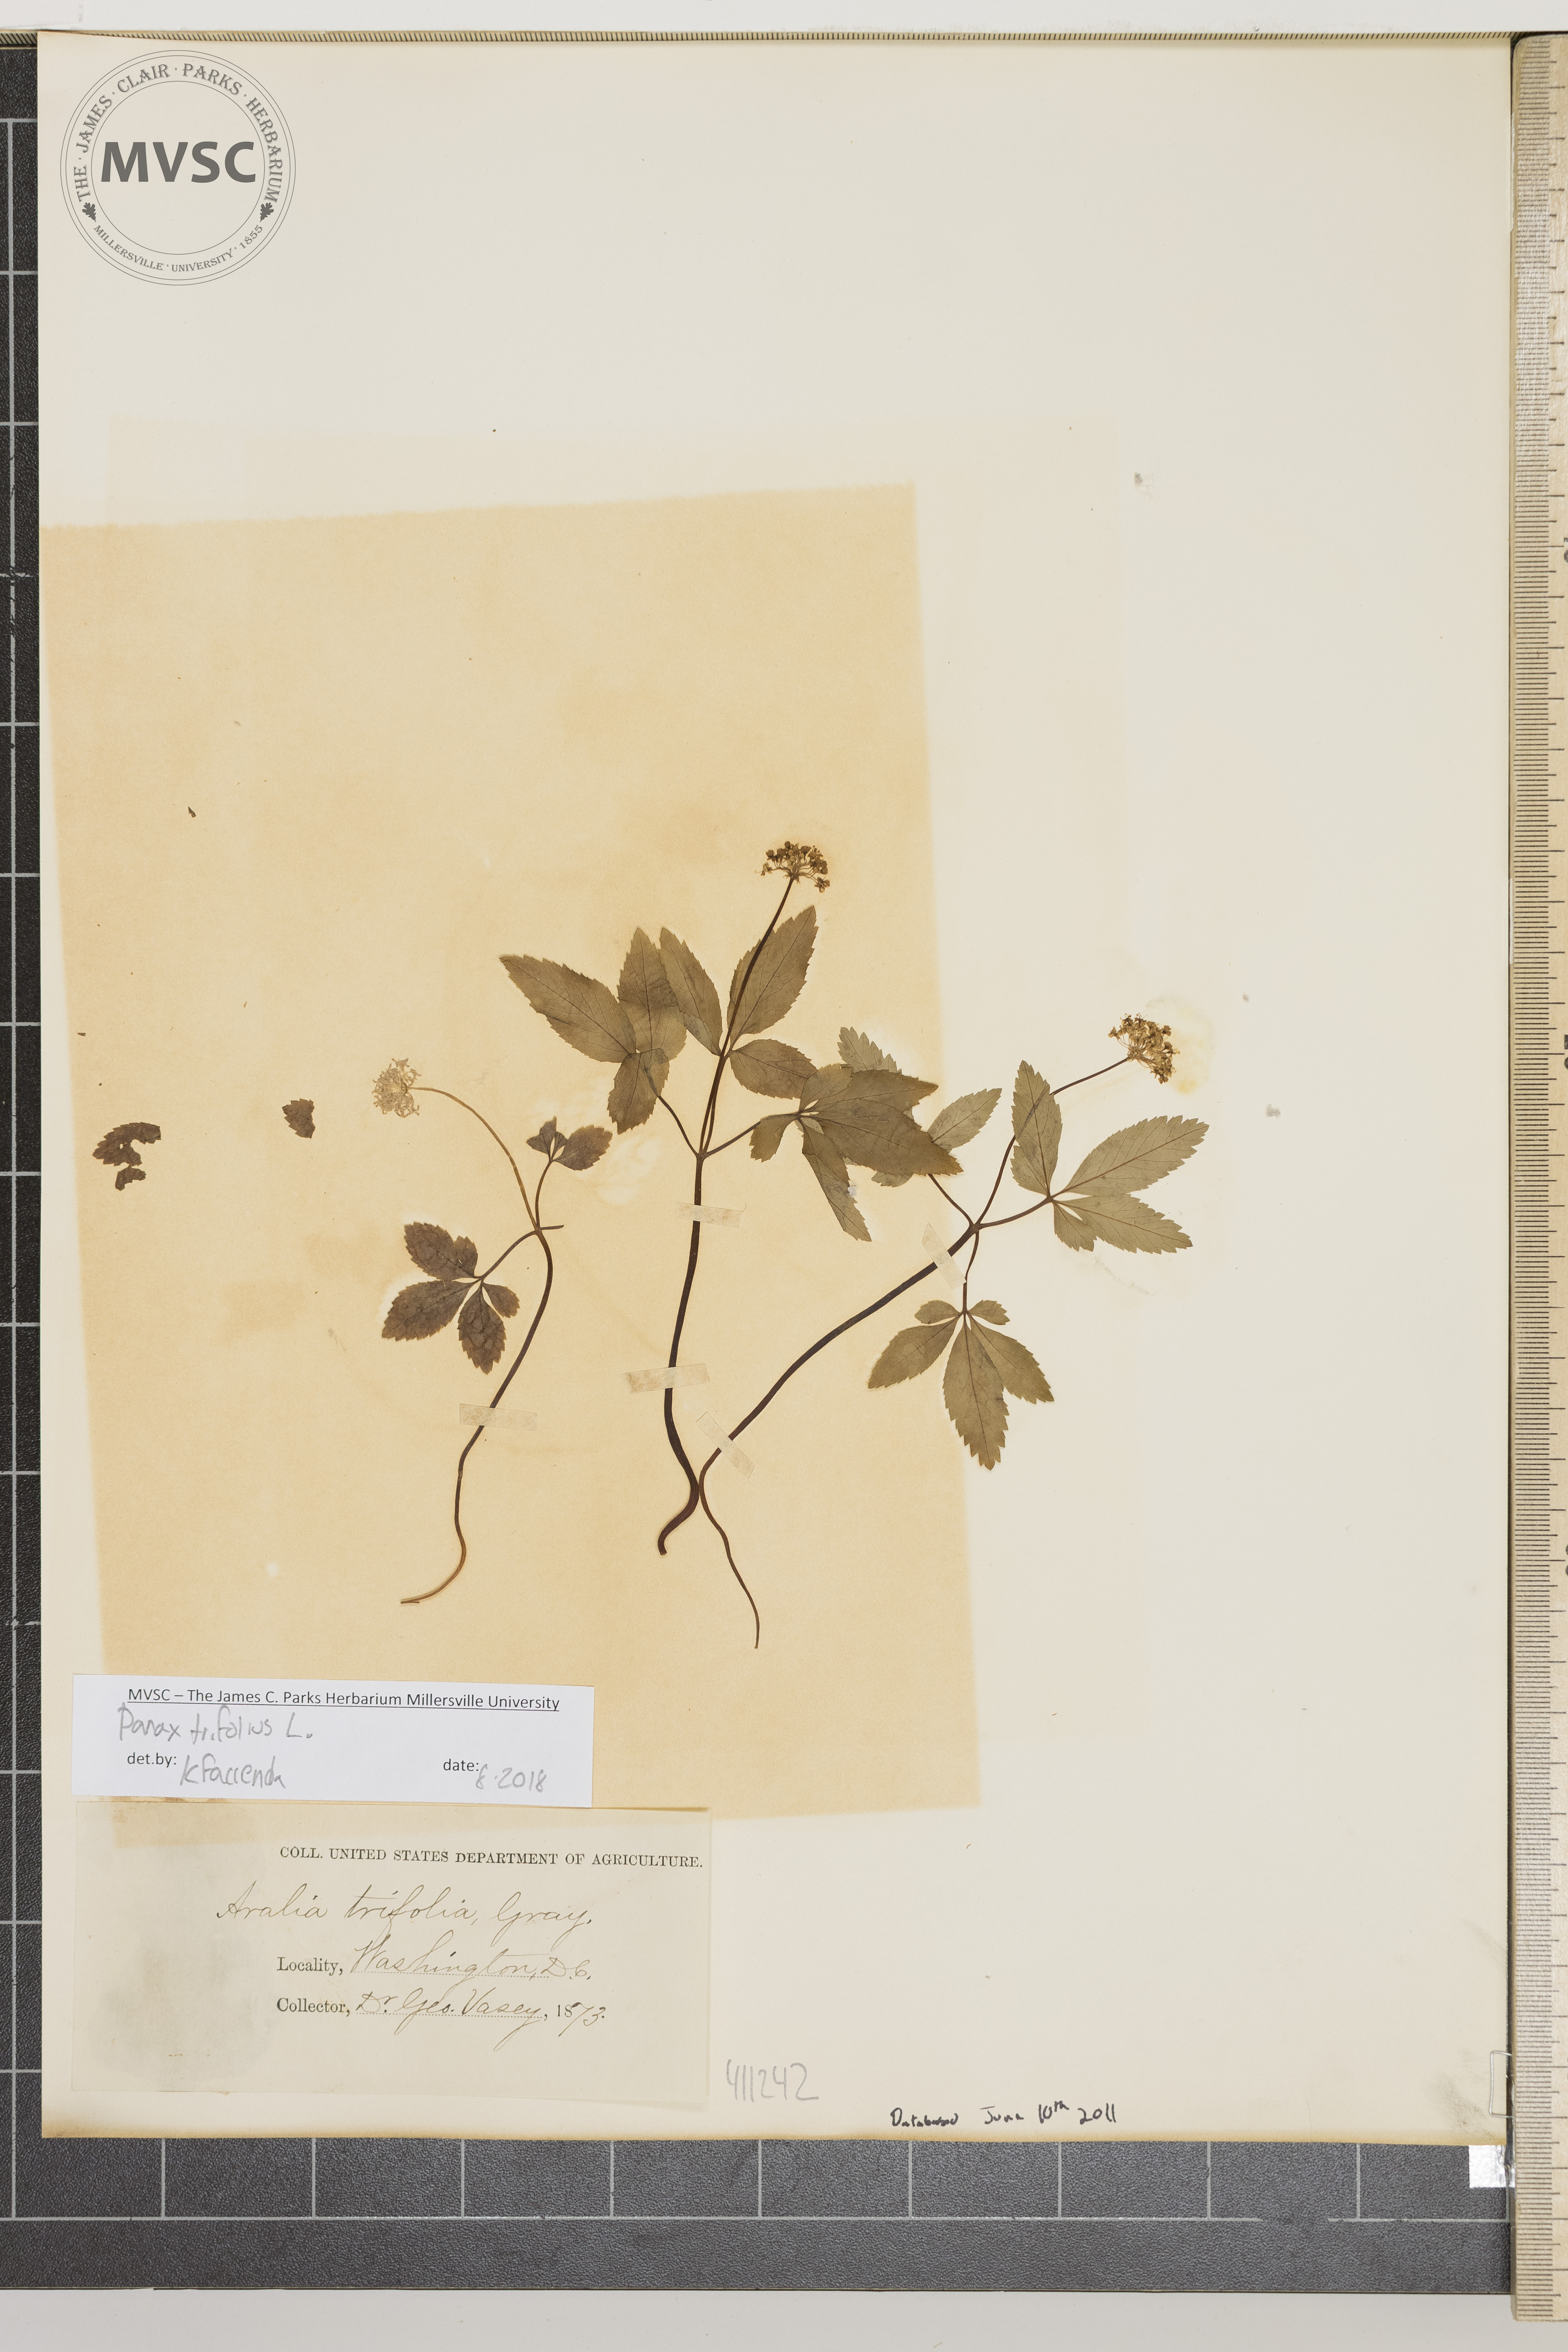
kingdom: Plantae
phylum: Tracheophyta
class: Magnoliopsida
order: Apiales
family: Araliaceae
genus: Panax
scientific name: Panax trifolius
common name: Dwarf ginseng
